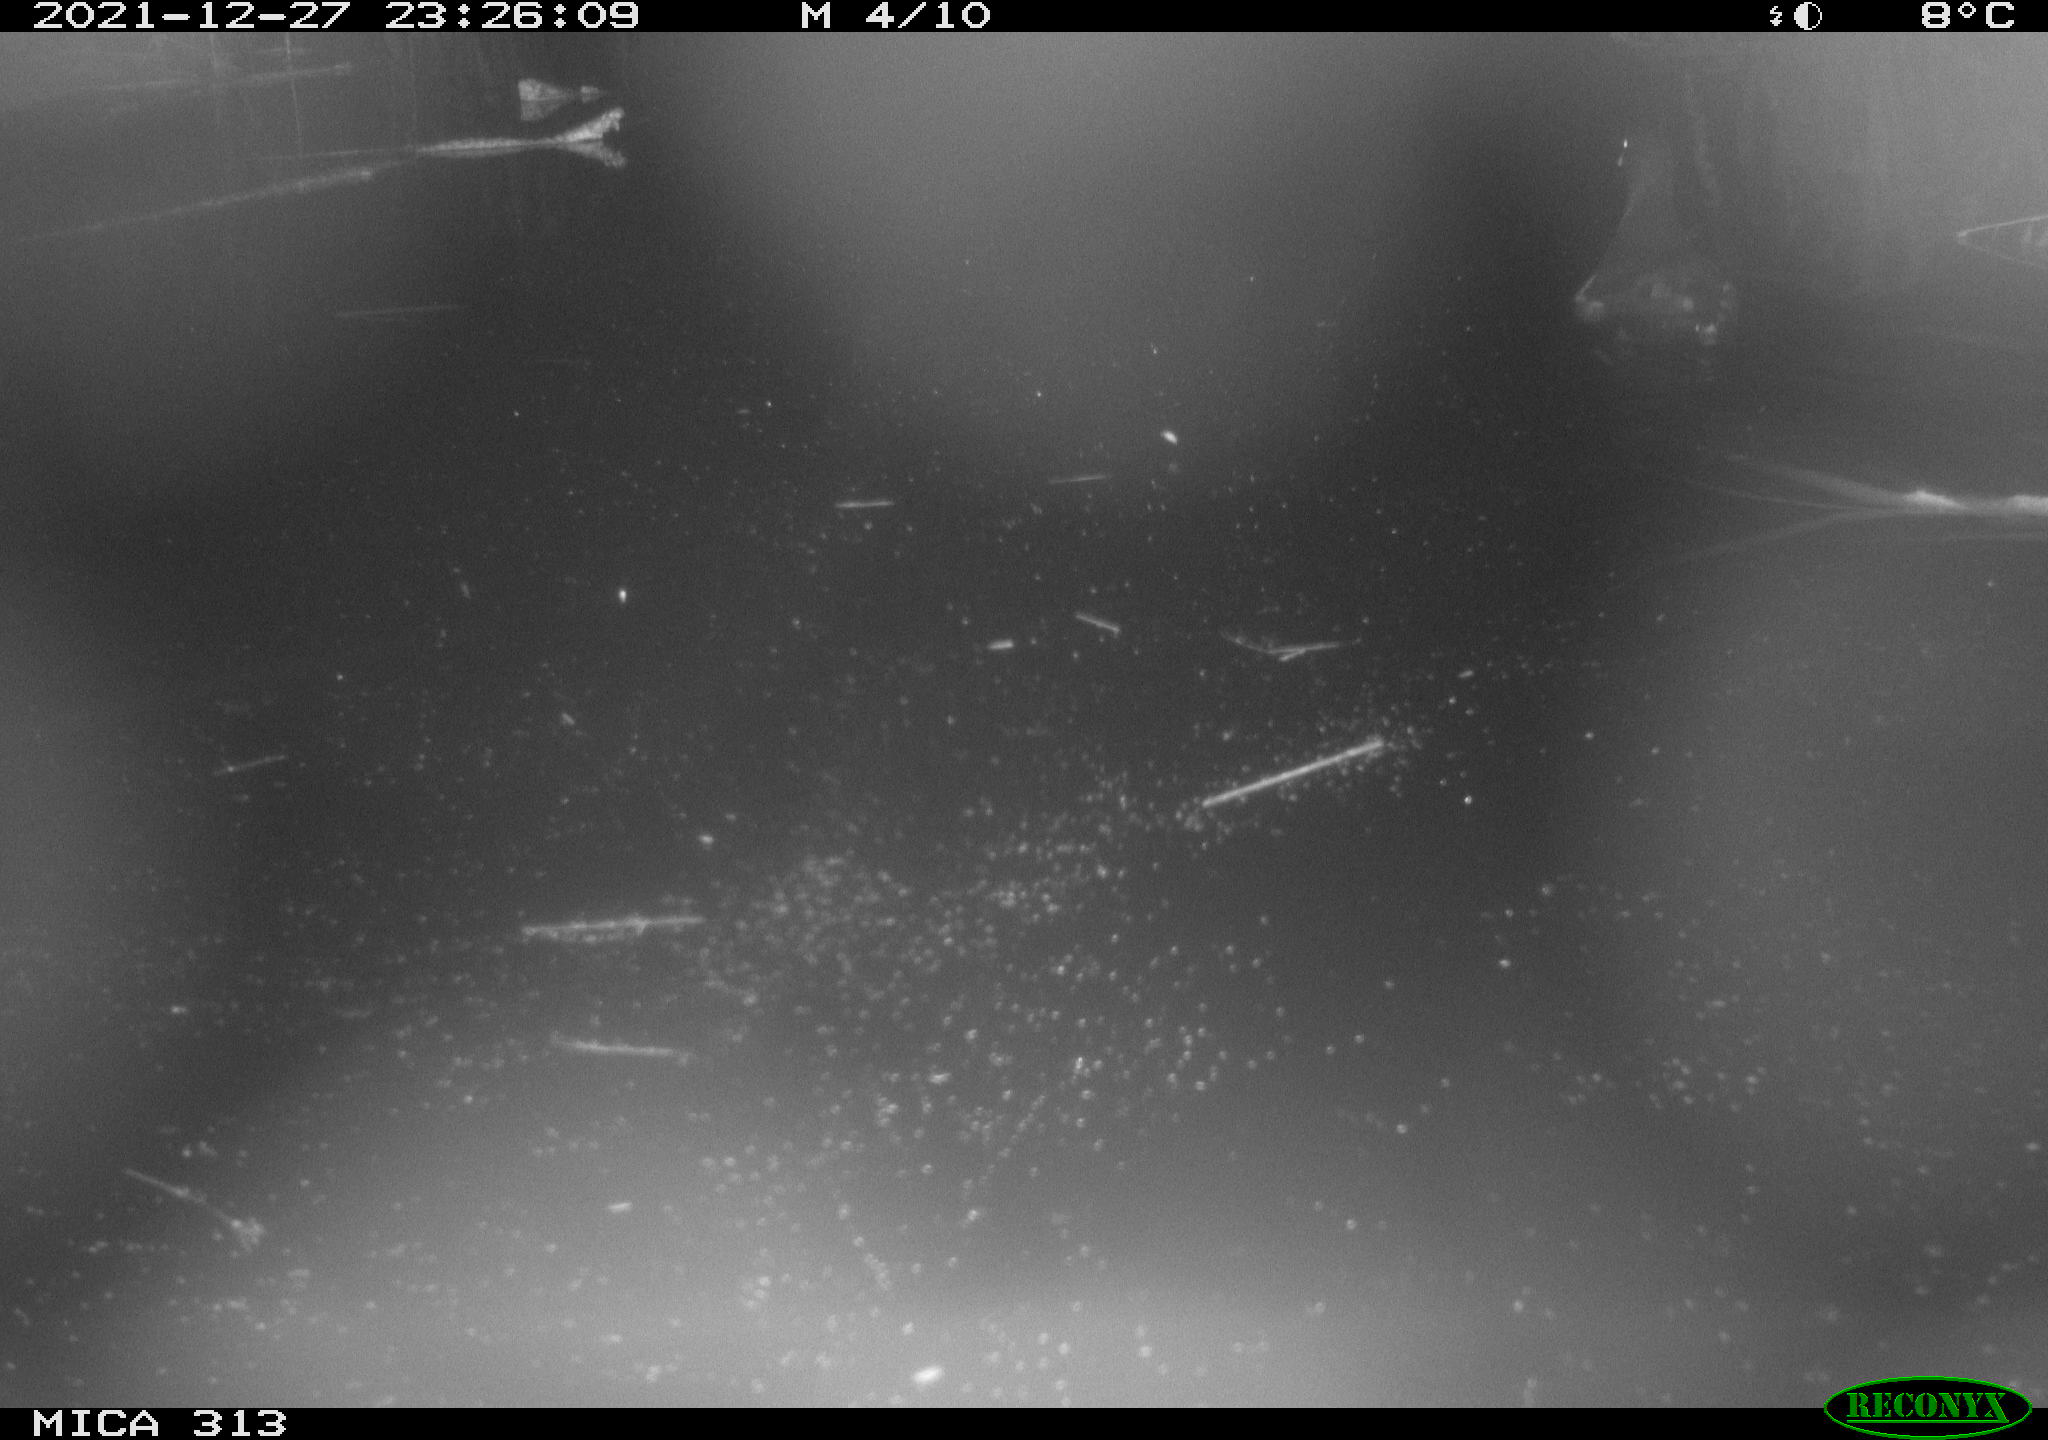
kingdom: Animalia
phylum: Chordata
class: Aves
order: Gruiformes
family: Rallidae
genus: Gallinula
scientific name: Gallinula chloropus
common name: Common moorhen
